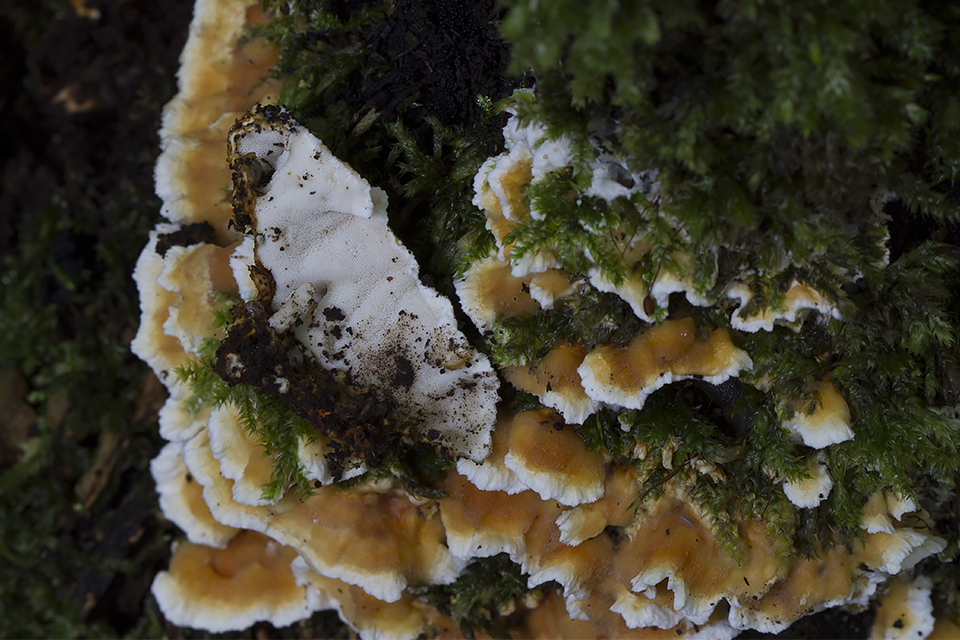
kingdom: Fungi
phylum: Basidiomycota
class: Agaricomycetes
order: Polyporales
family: Steccherinaceae
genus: Loweomyces
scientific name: Loweomyces wynneae
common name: krybende blødporesvamp
